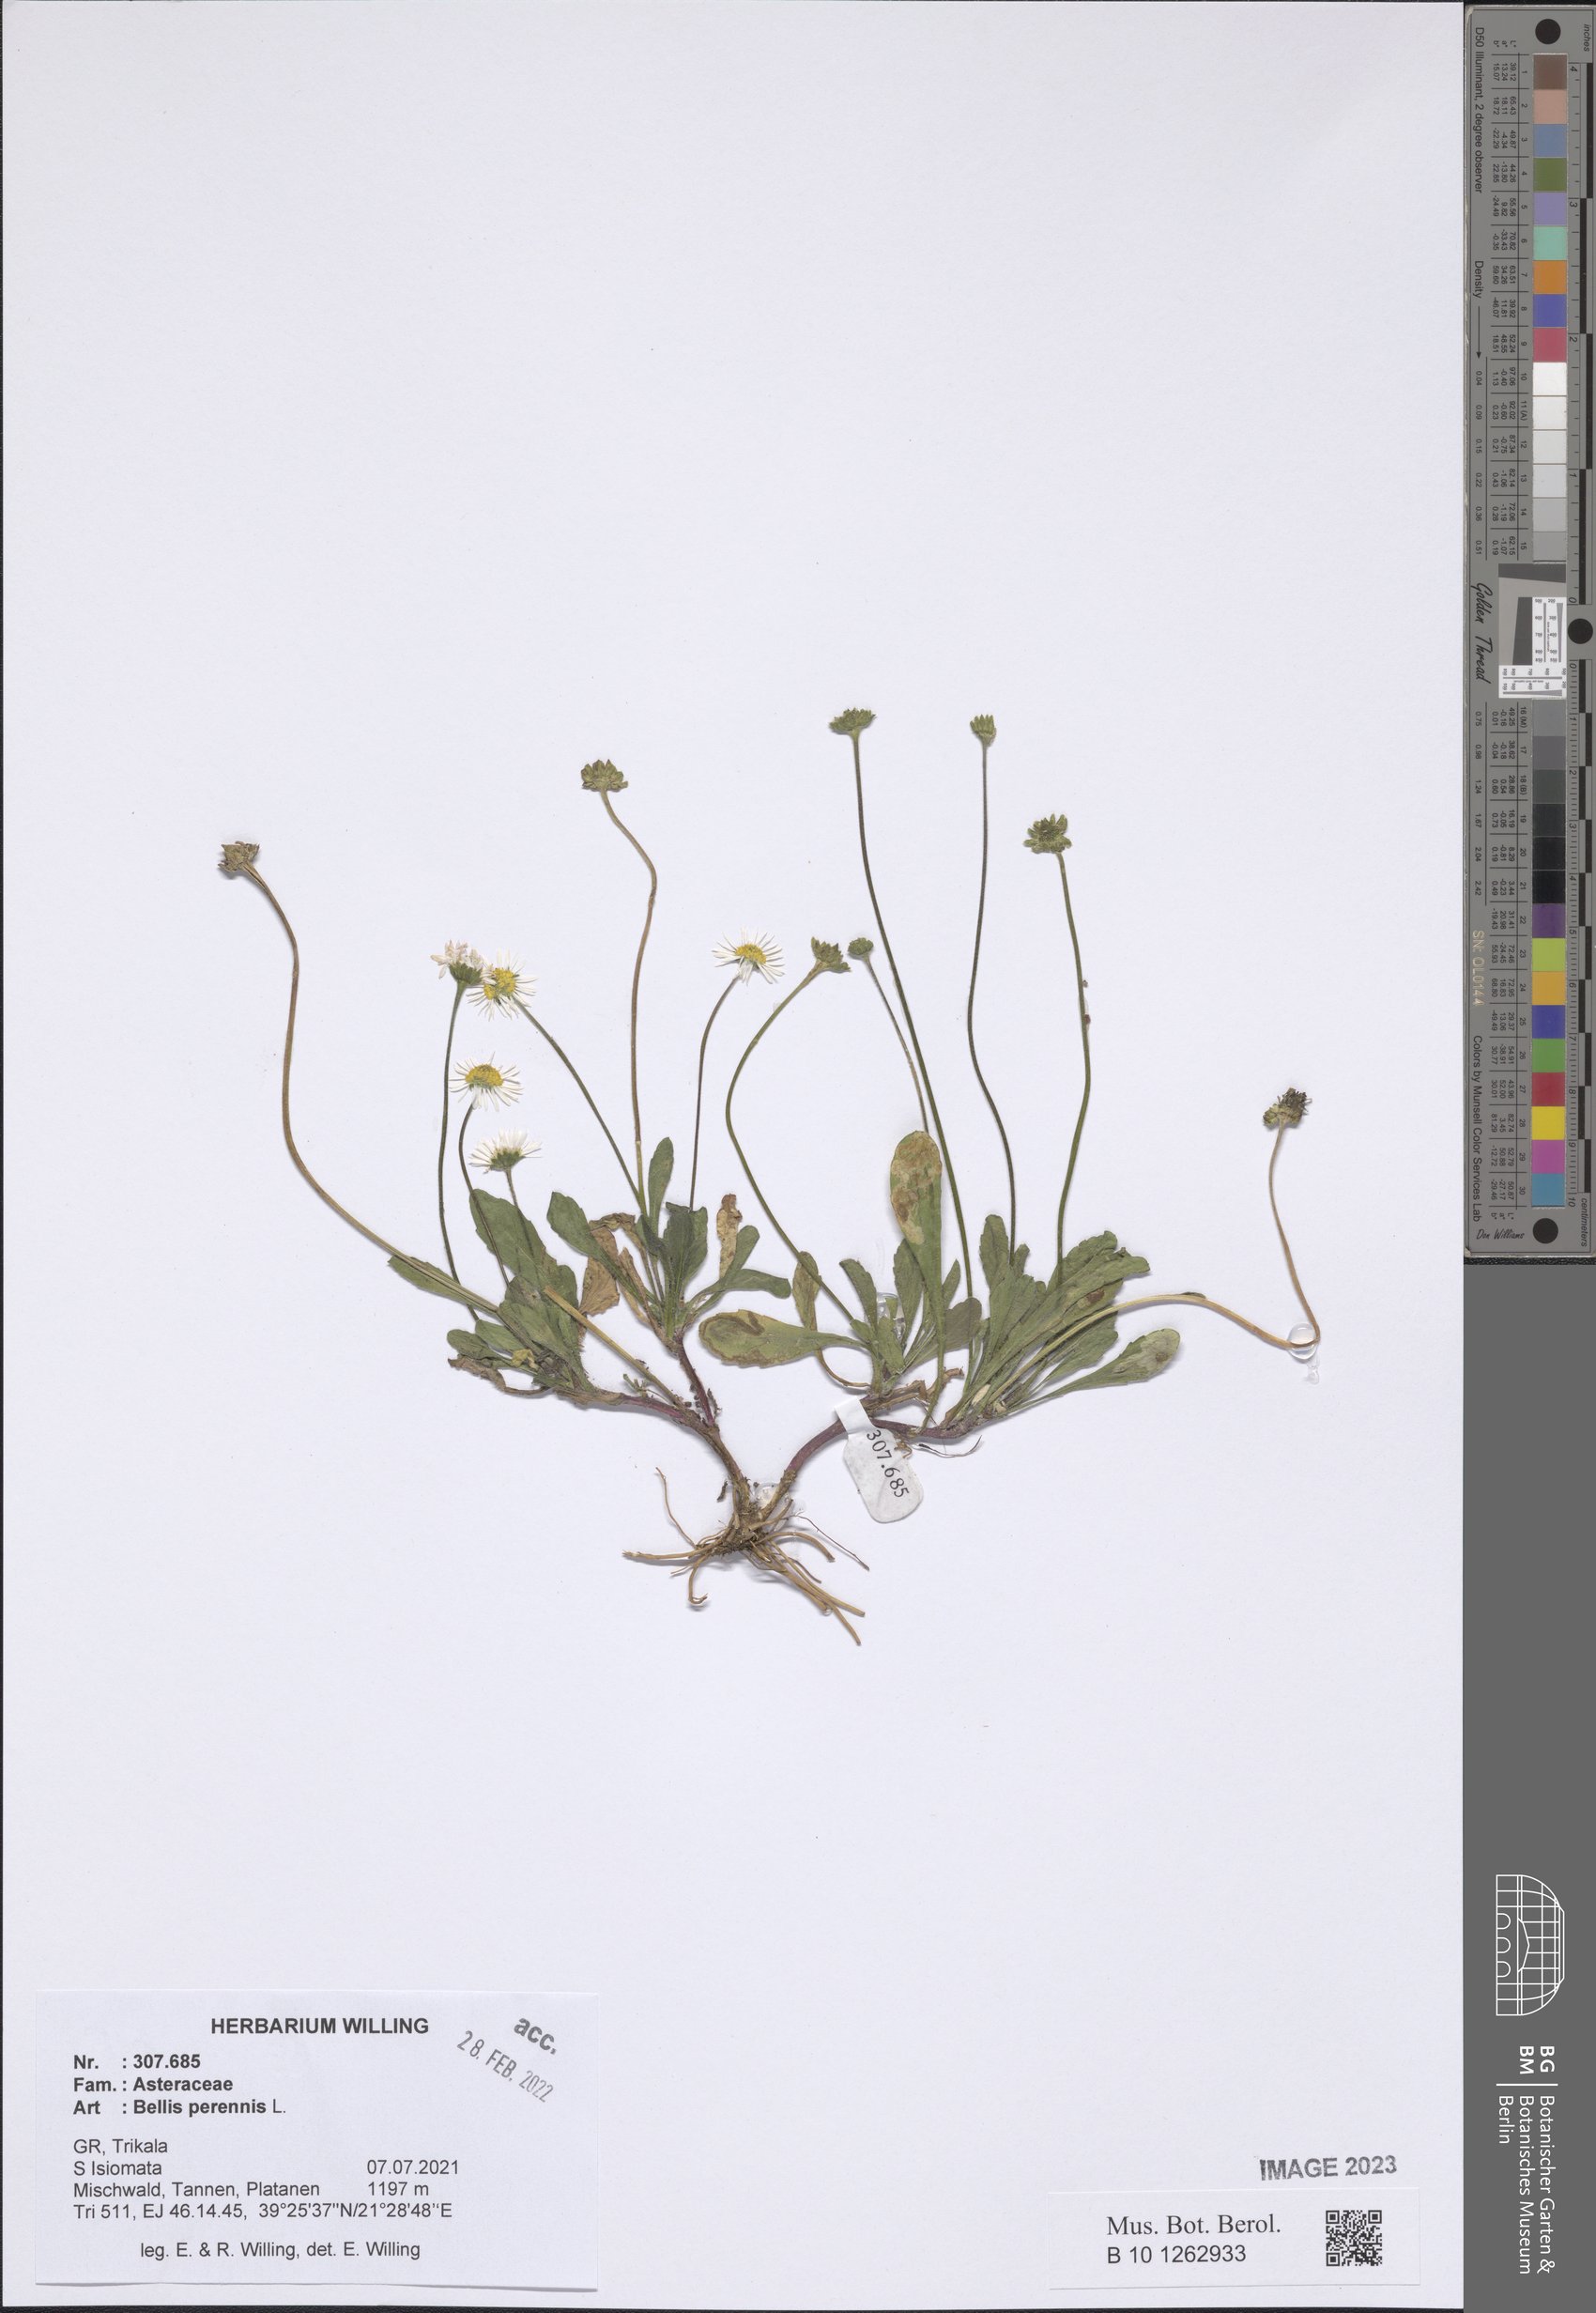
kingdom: Plantae
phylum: Tracheophyta
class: Magnoliopsida
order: Asterales
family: Asteraceae
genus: Bellis
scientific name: Bellis perennis
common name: Lawndaisy
